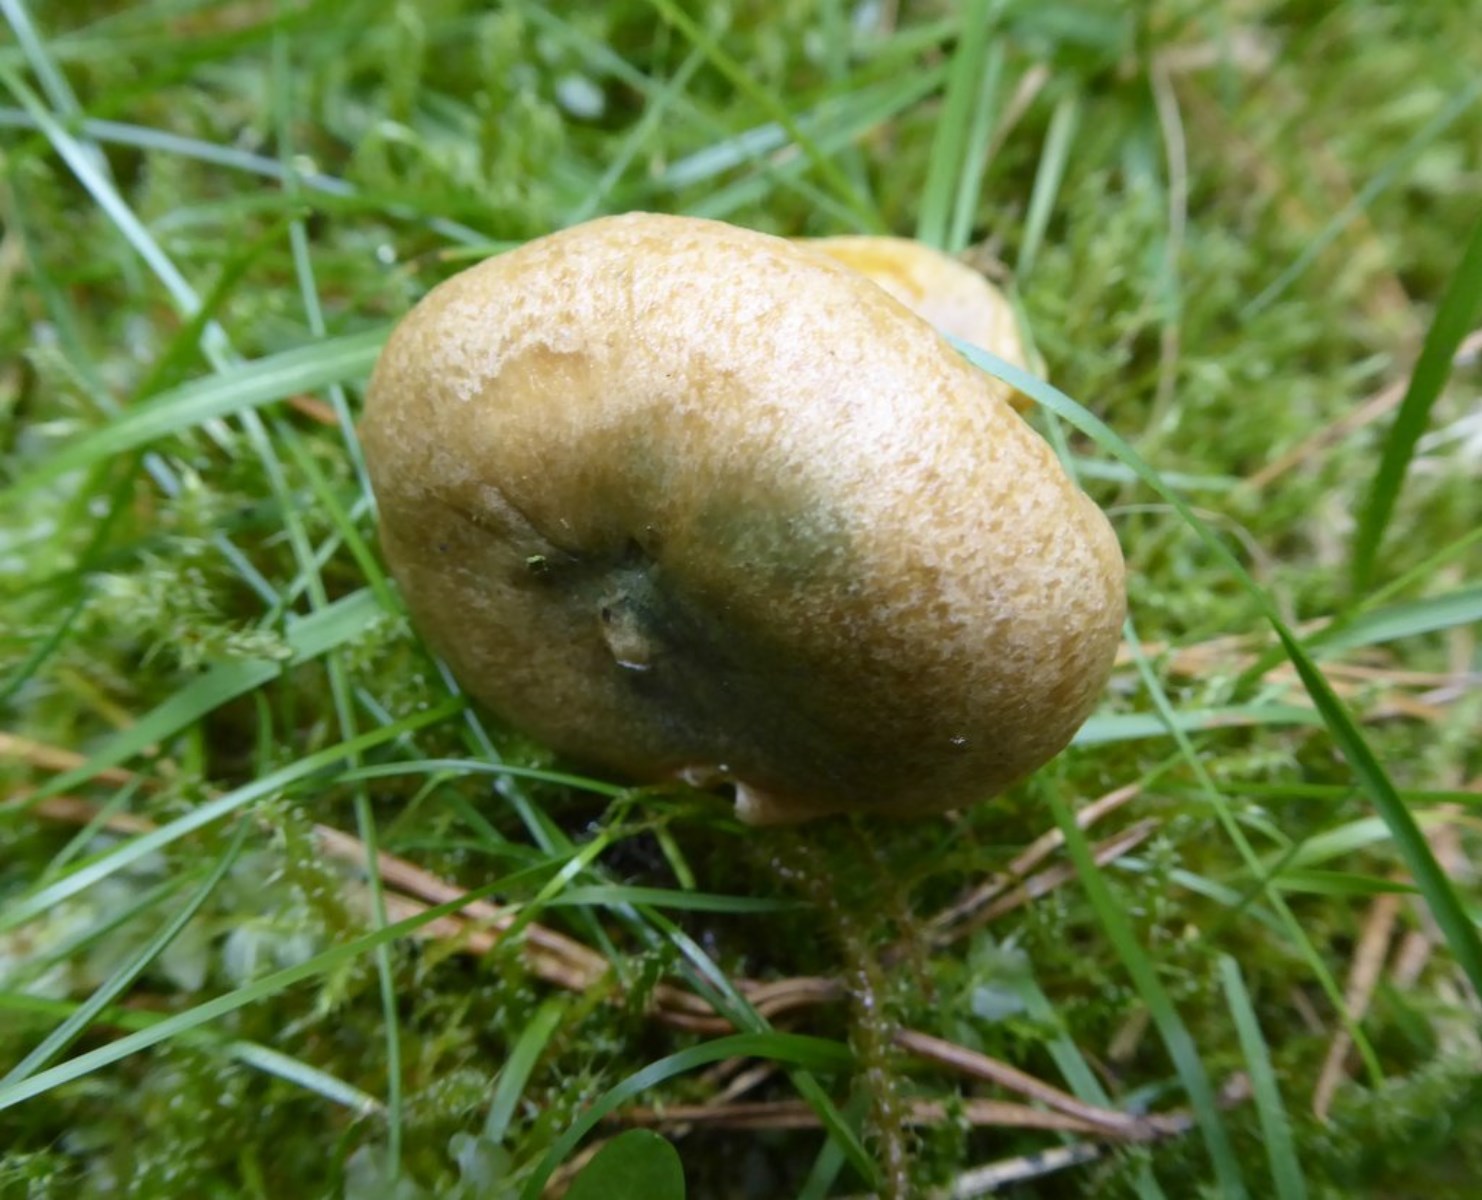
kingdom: Fungi
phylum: Basidiomycota
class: Agaricomycetes
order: Russulales
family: Russulaceae
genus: Lactarius
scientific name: Lactarius deterrimus
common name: gran-mælkehat
